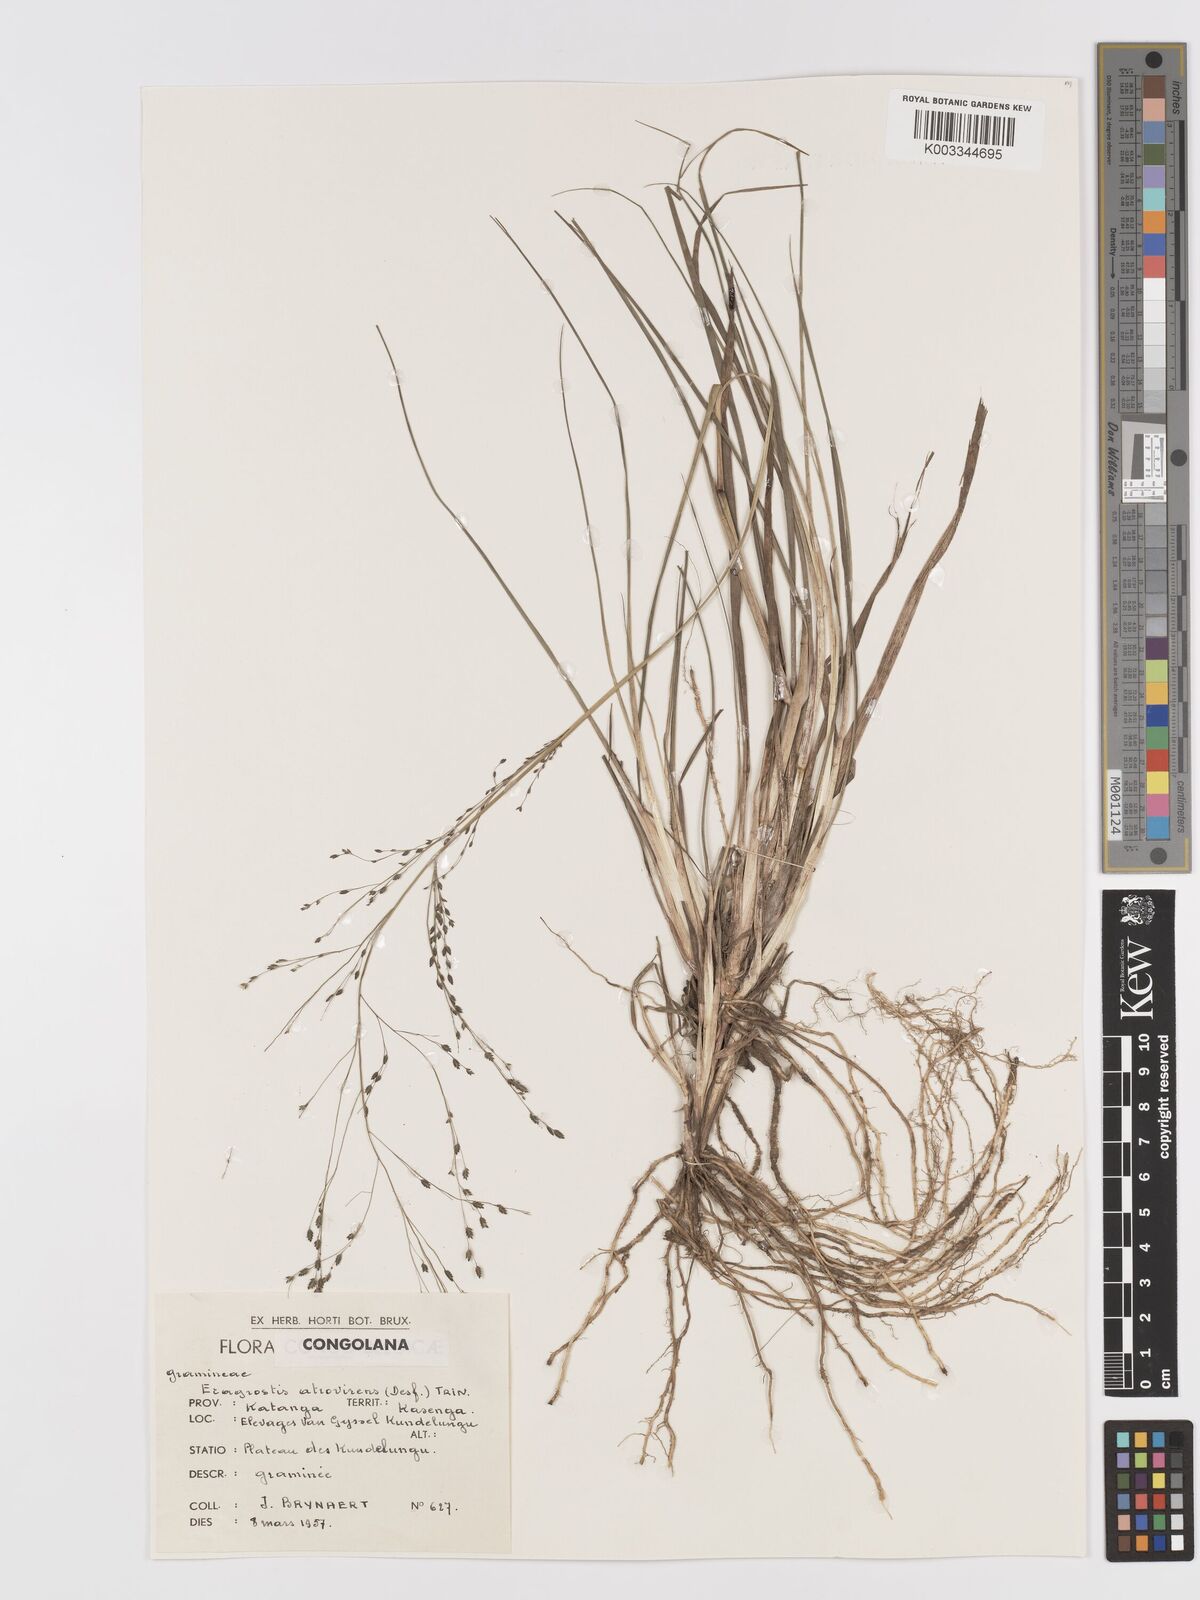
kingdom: Plantae
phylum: Tracheophyta
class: Liliopsida
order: Poales
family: Poaceae
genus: Eragrostis
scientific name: Eragrostis atrovirens
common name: Thalia lovegrass
